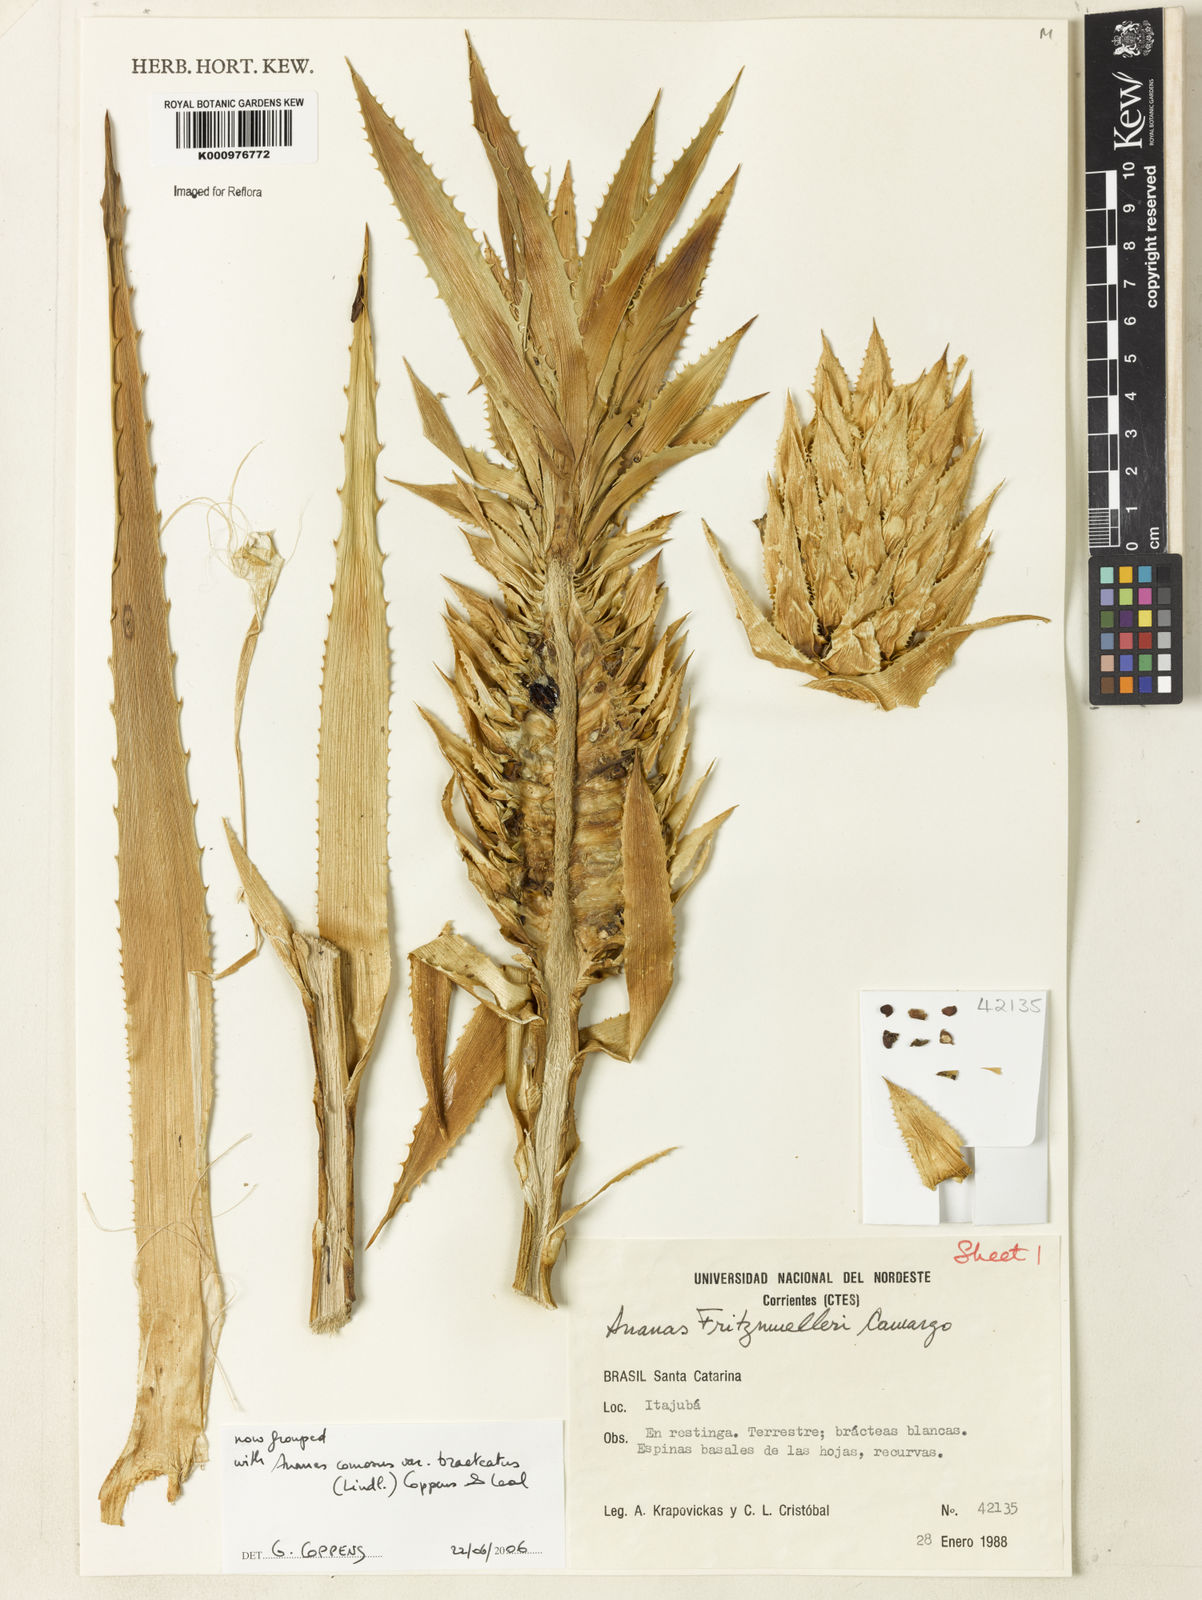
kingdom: Plantae
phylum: Tracheophyta
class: Liliopsida
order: Poales
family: Bromeliaceae
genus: Ananas
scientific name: Ananas comosus
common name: Pineapple
